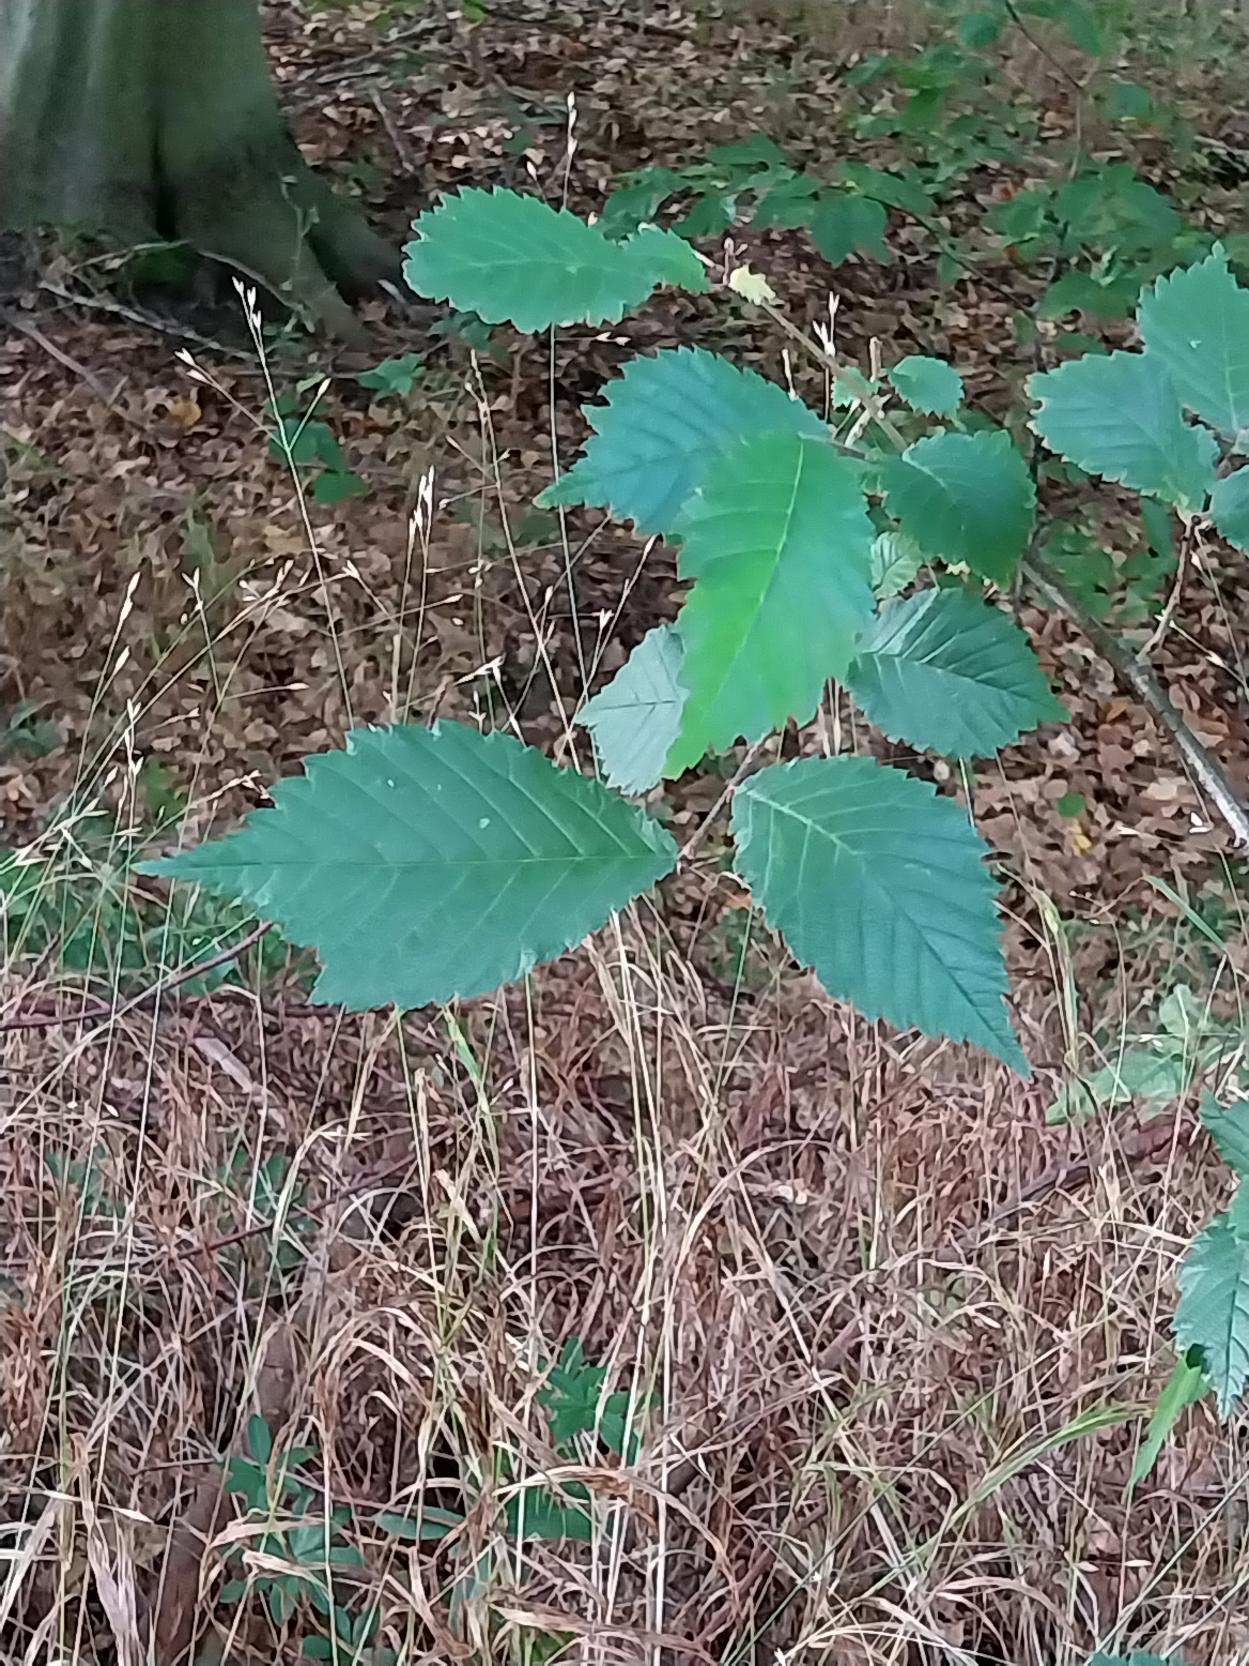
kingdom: Plantae
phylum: Tracheophyta
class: Magnoliopsida
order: Rosales
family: Ulmaceae
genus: Ulmus
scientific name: Ulmus glabra
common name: Skov-elm/storbladet elm
